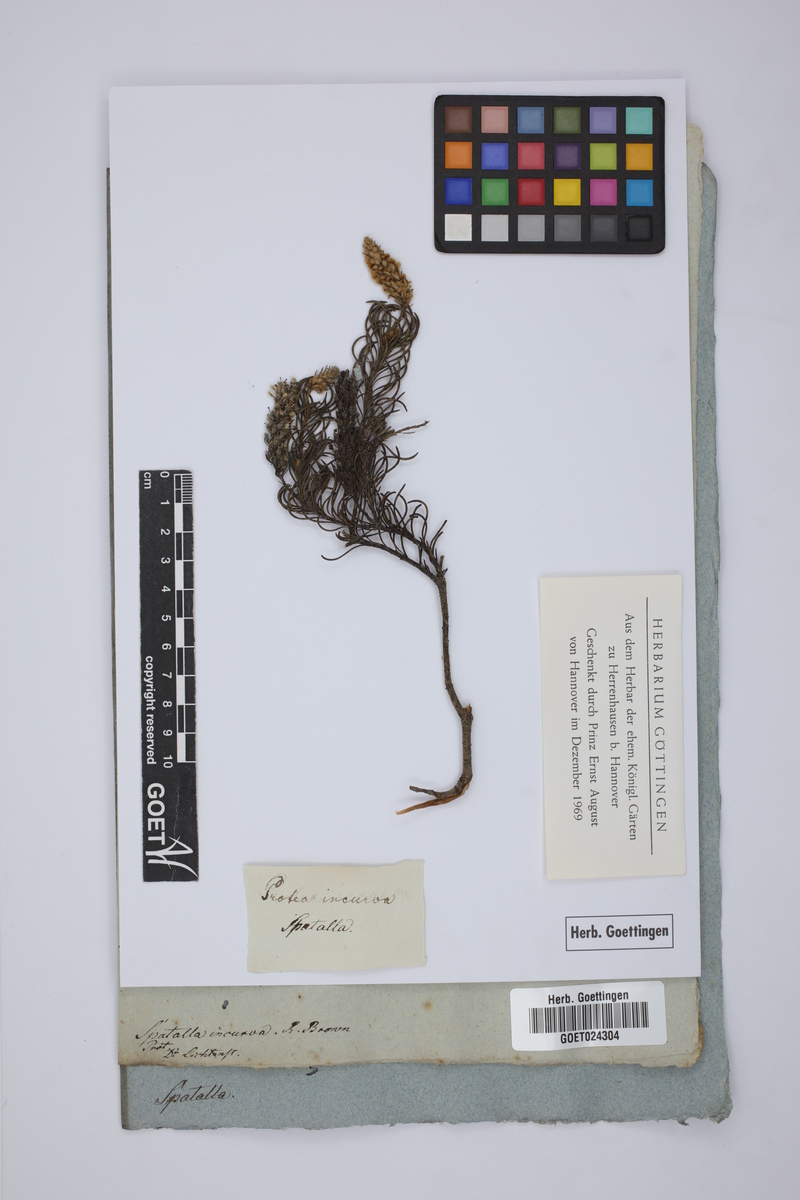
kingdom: Plantae
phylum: Tracheophyta
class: Magnoliopsida
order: Proteales
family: Proteaceae
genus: Spatalla
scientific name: Spatalla incurva
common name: Swan-head spoon
